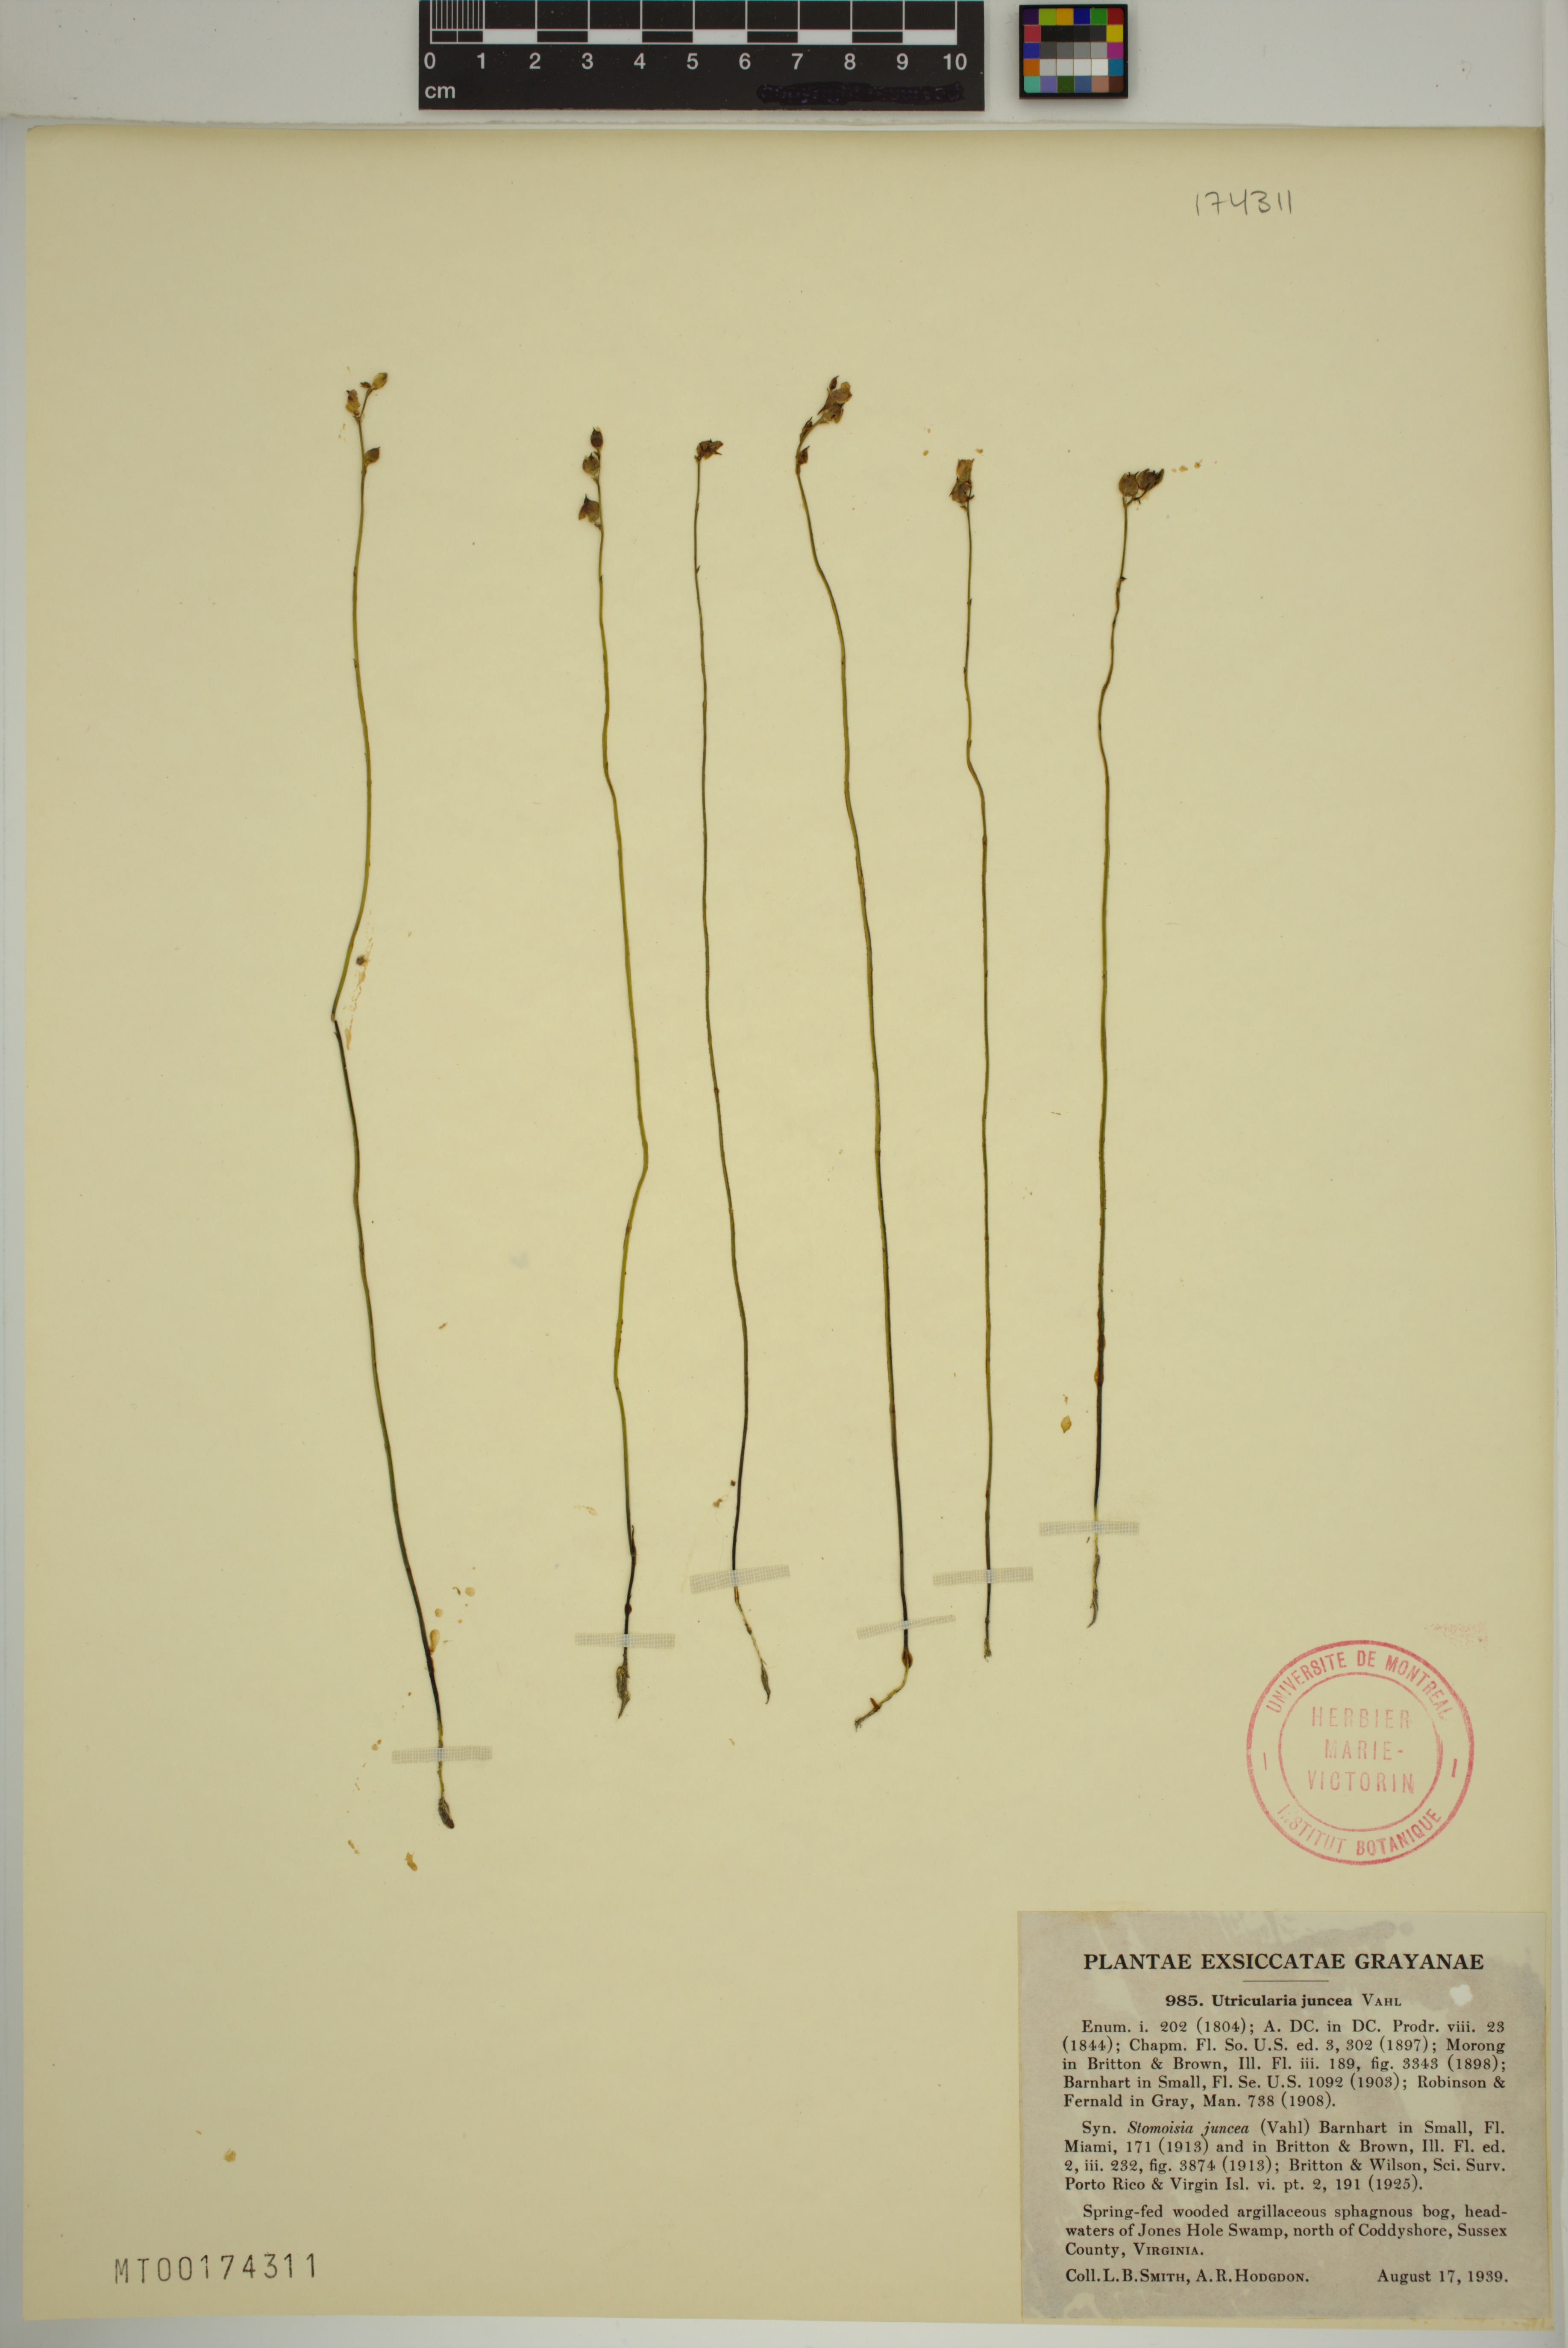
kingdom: Plantae
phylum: Tracheophyta
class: Magnoliopsida
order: Lamiales
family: Lentibulariaceae
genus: Utricularia
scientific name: Utricularia juncea
